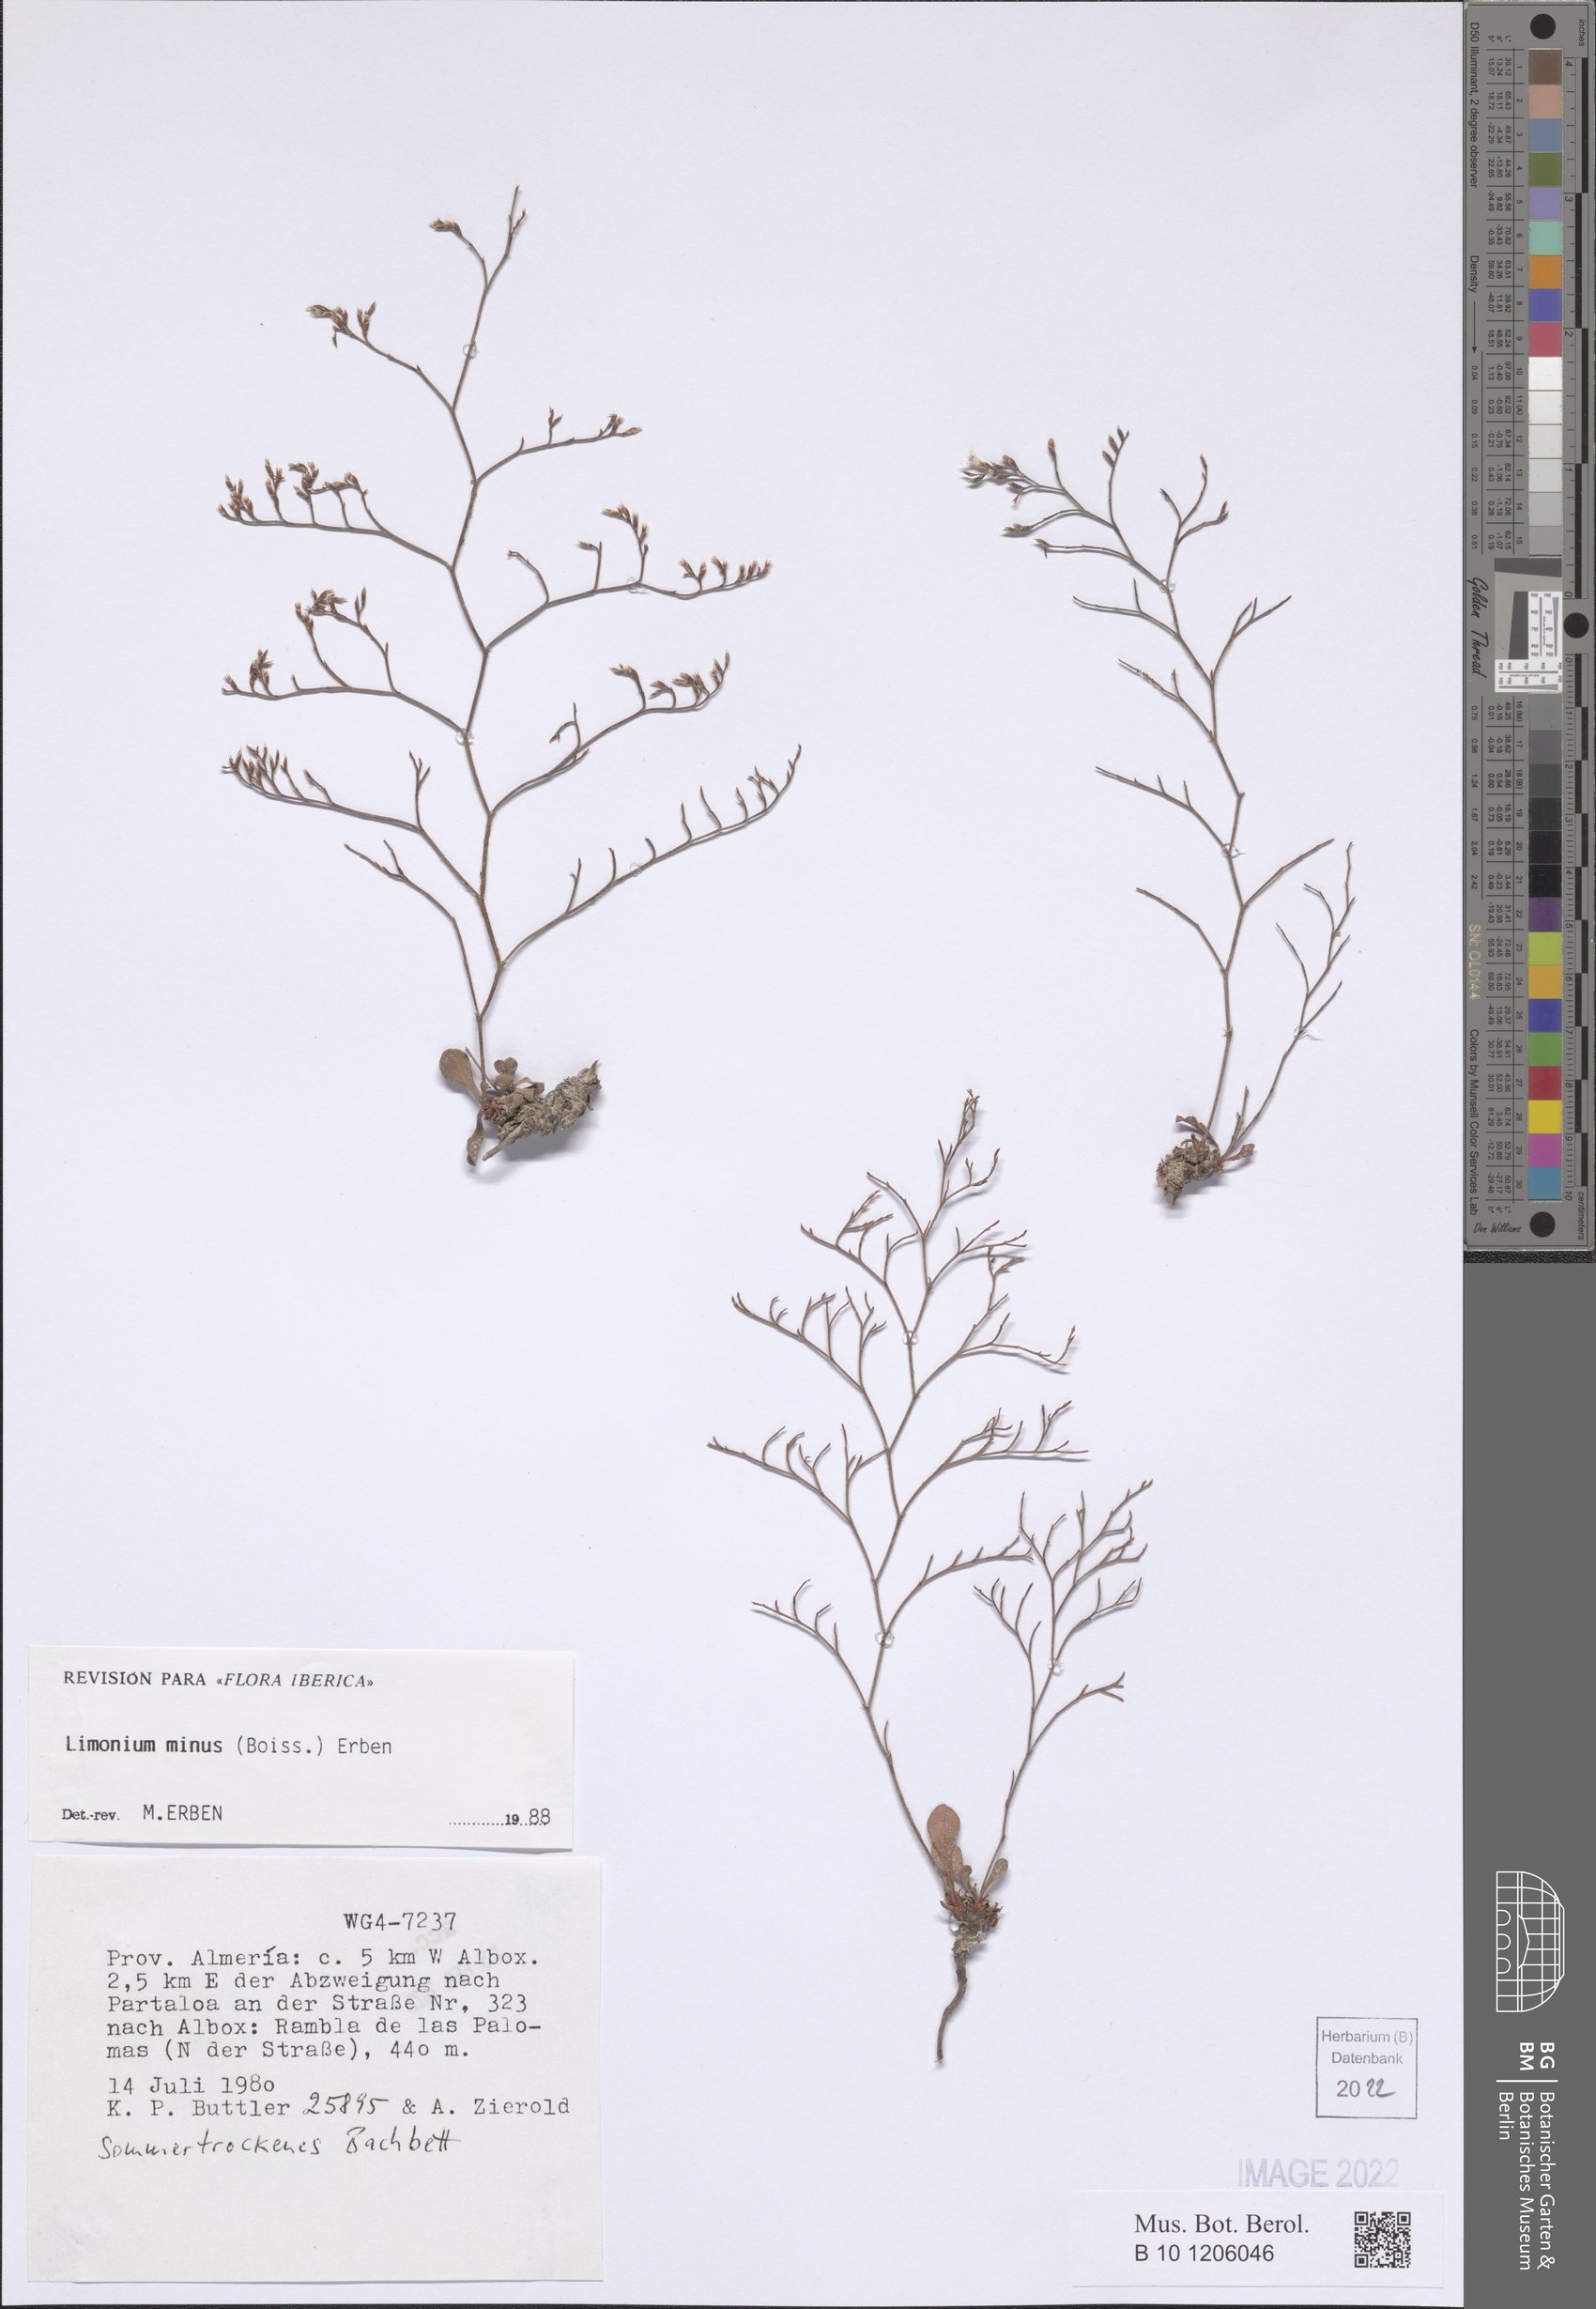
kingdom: Plantae
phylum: Tracheophyta
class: Magnoliopsida
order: Caryophyllales
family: Plumbaginaceae
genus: Limonium
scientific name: Limonium minus
